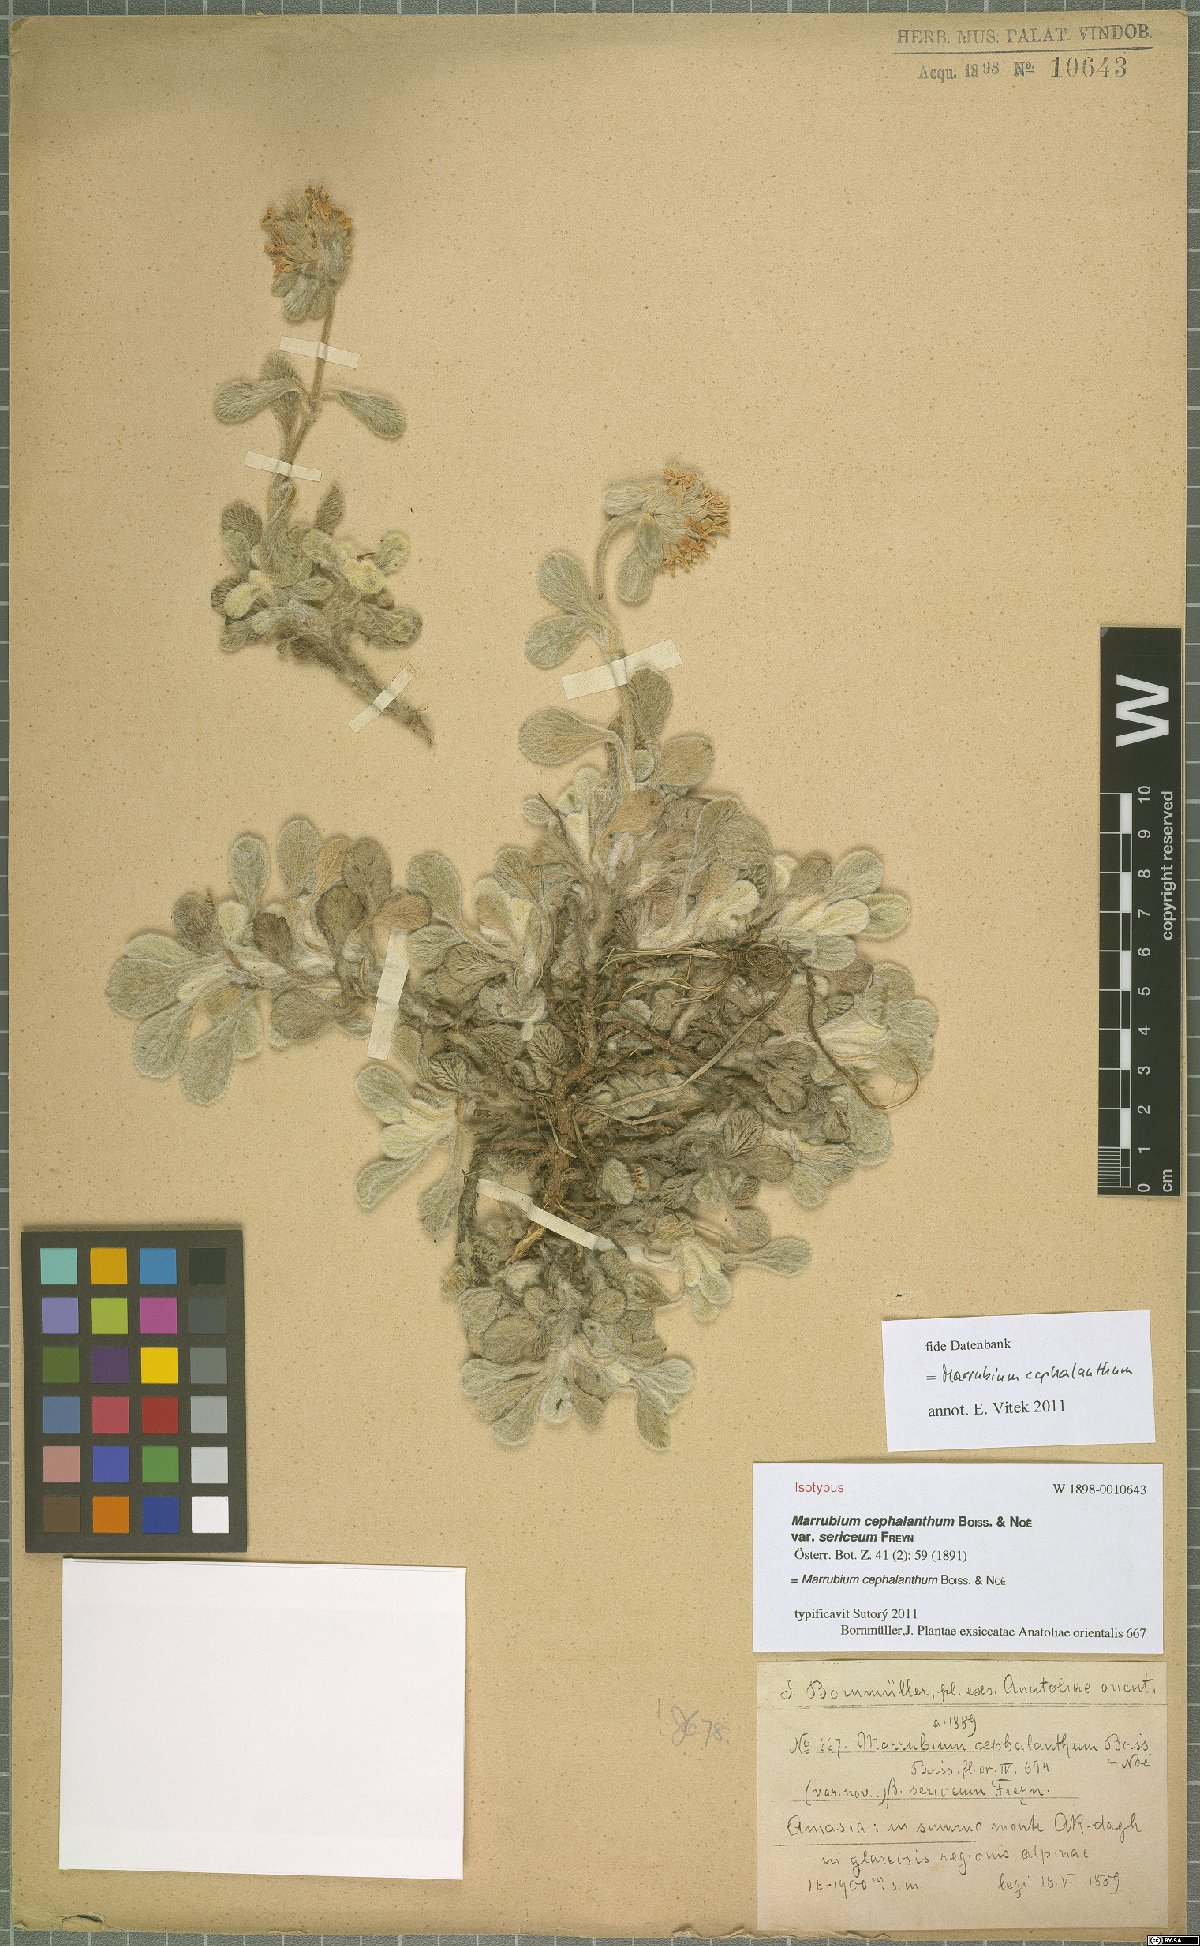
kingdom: Plantae
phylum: Tracheophyta
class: Magnoliopsida
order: Lamiales
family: Lamiaceae
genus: Marrubium
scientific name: Marrubium cephalanthum
